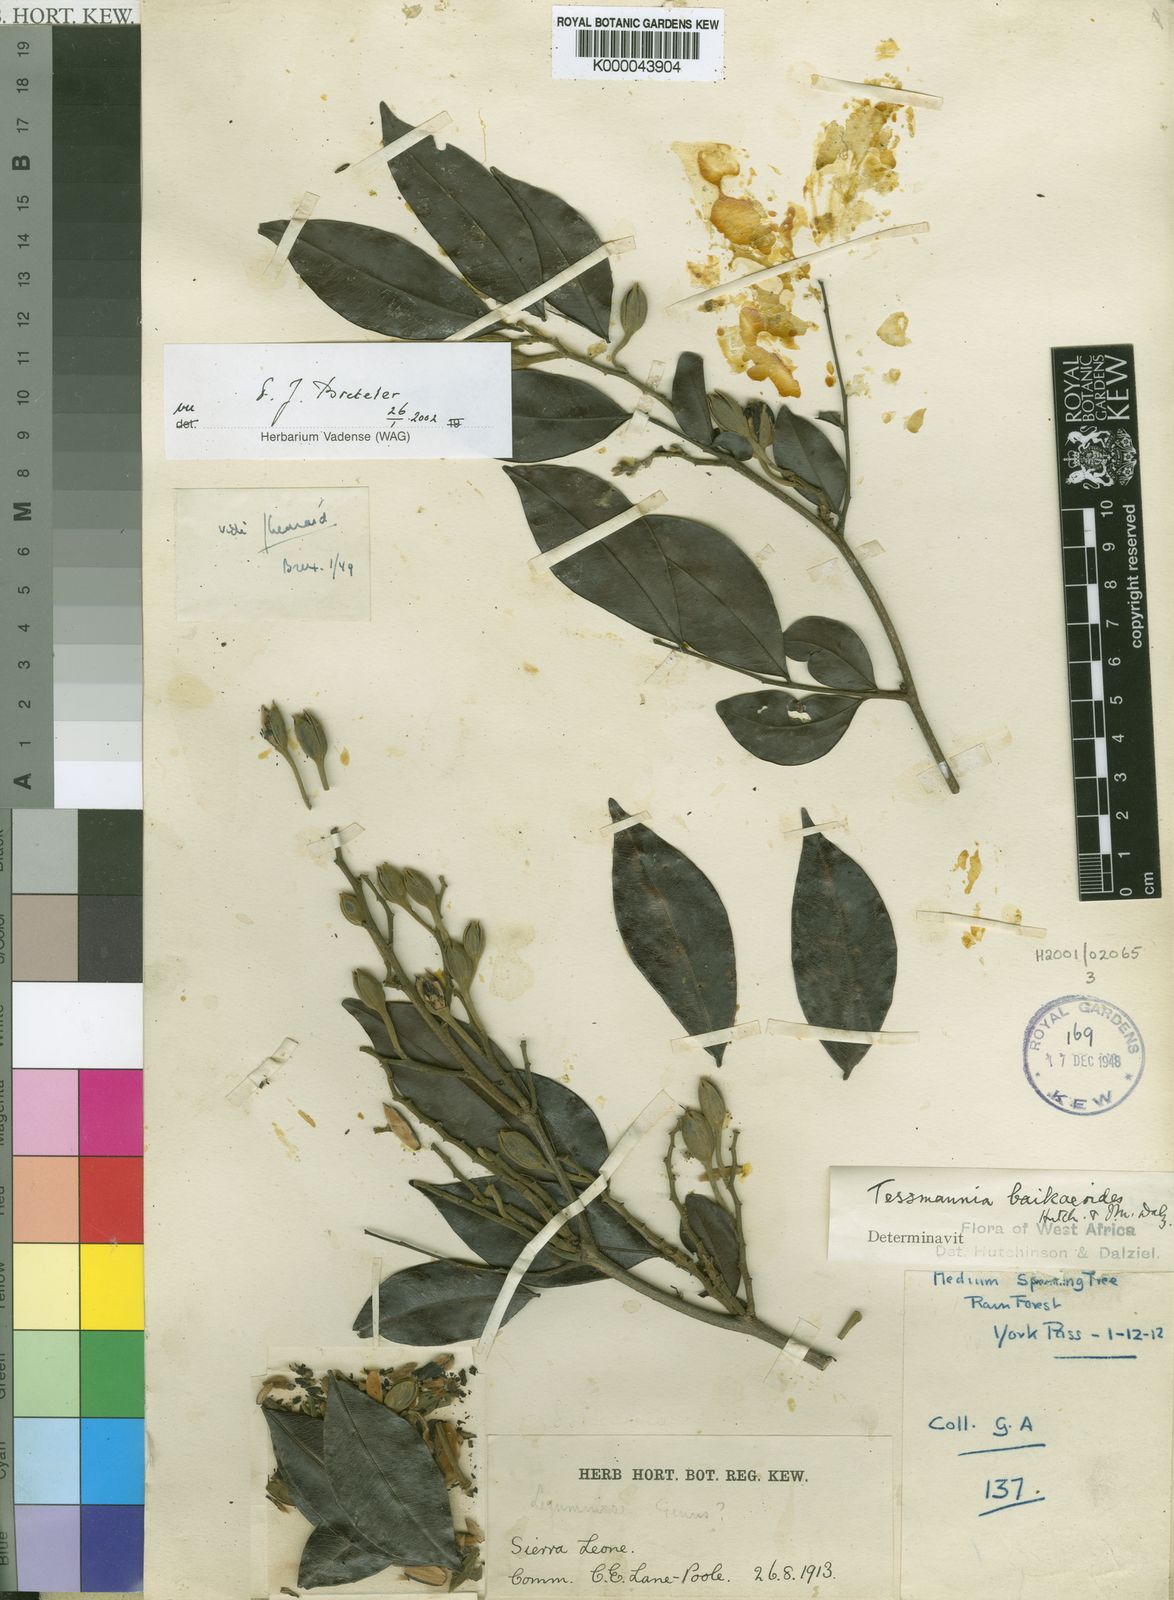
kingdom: Plantae
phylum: Tracheophyta
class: Magnoliopsida
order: Fabales
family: Fabaceae
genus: Tessmannia
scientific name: Tessmannia
